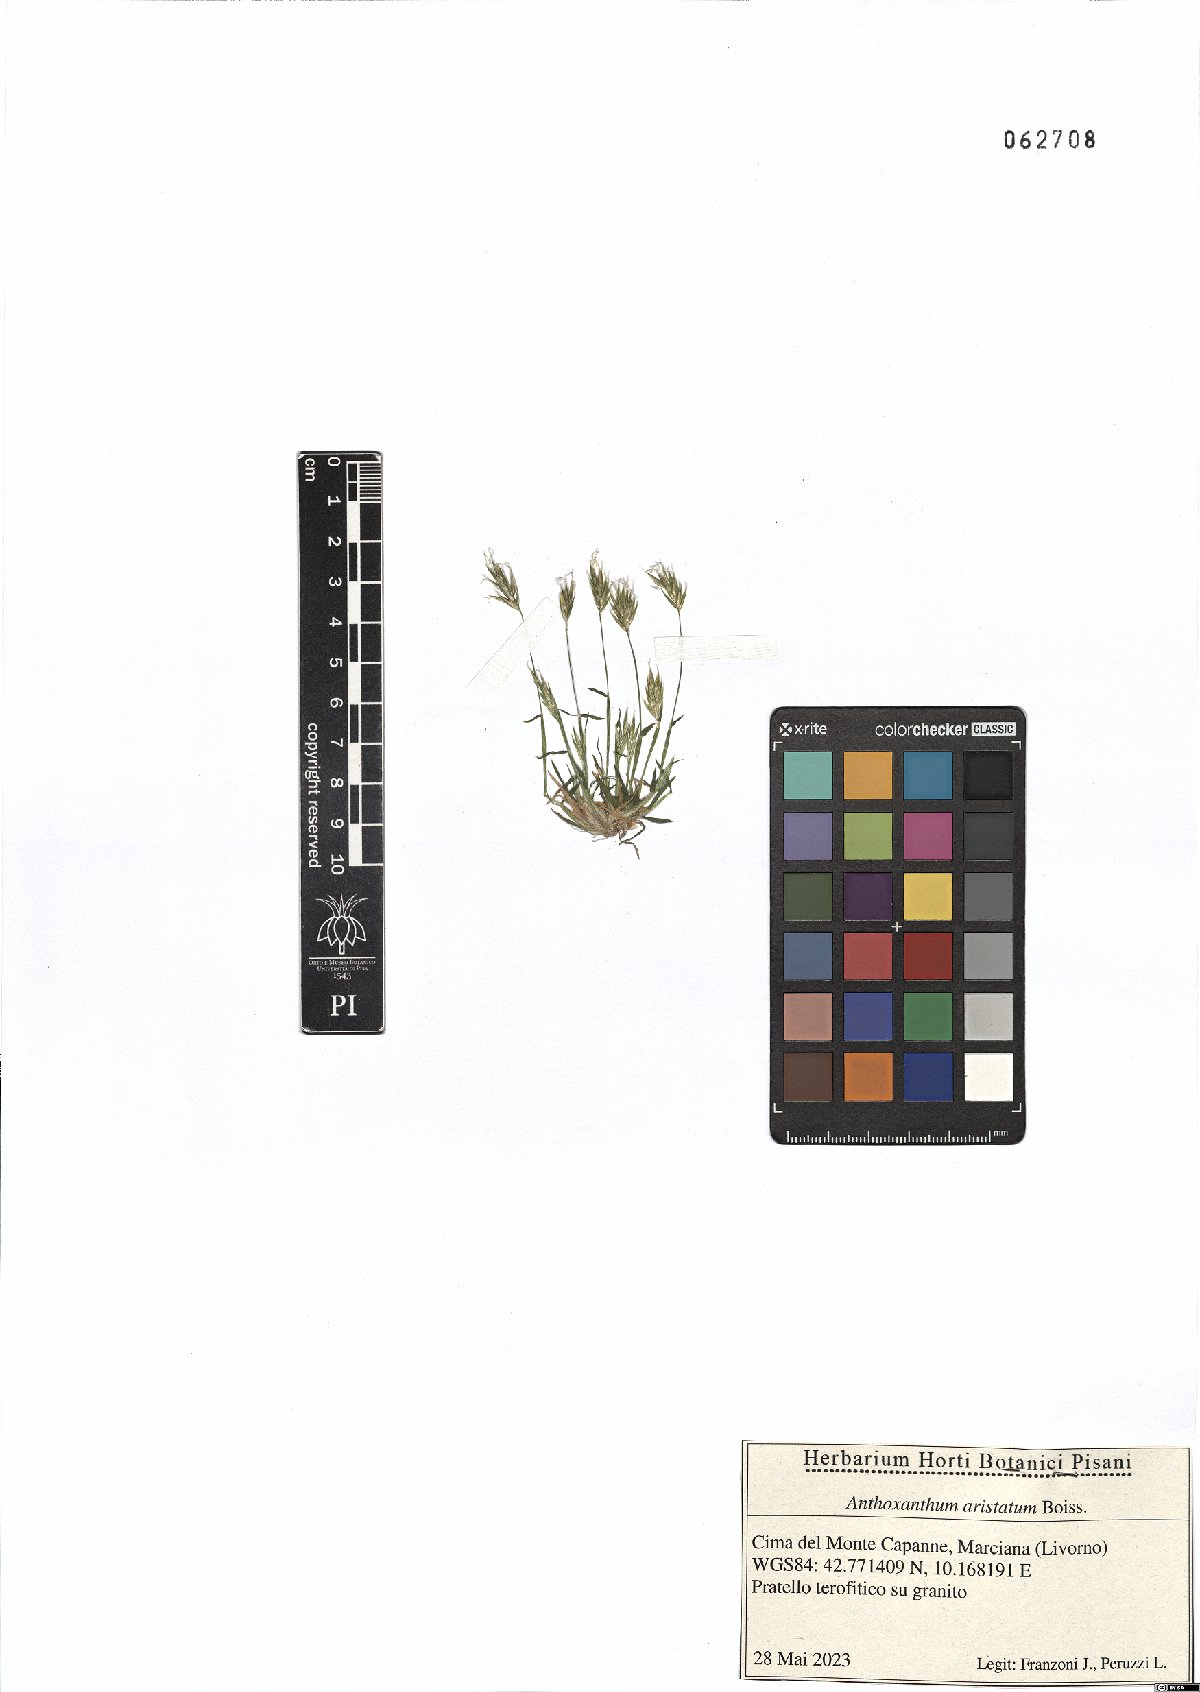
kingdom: Plantae
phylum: Tracheophyta
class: Liliopsida
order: Poales
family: Poaceae
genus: Anthoxanthum
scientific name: Anthoxanthum aristatum
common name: Annual vernal-grass
